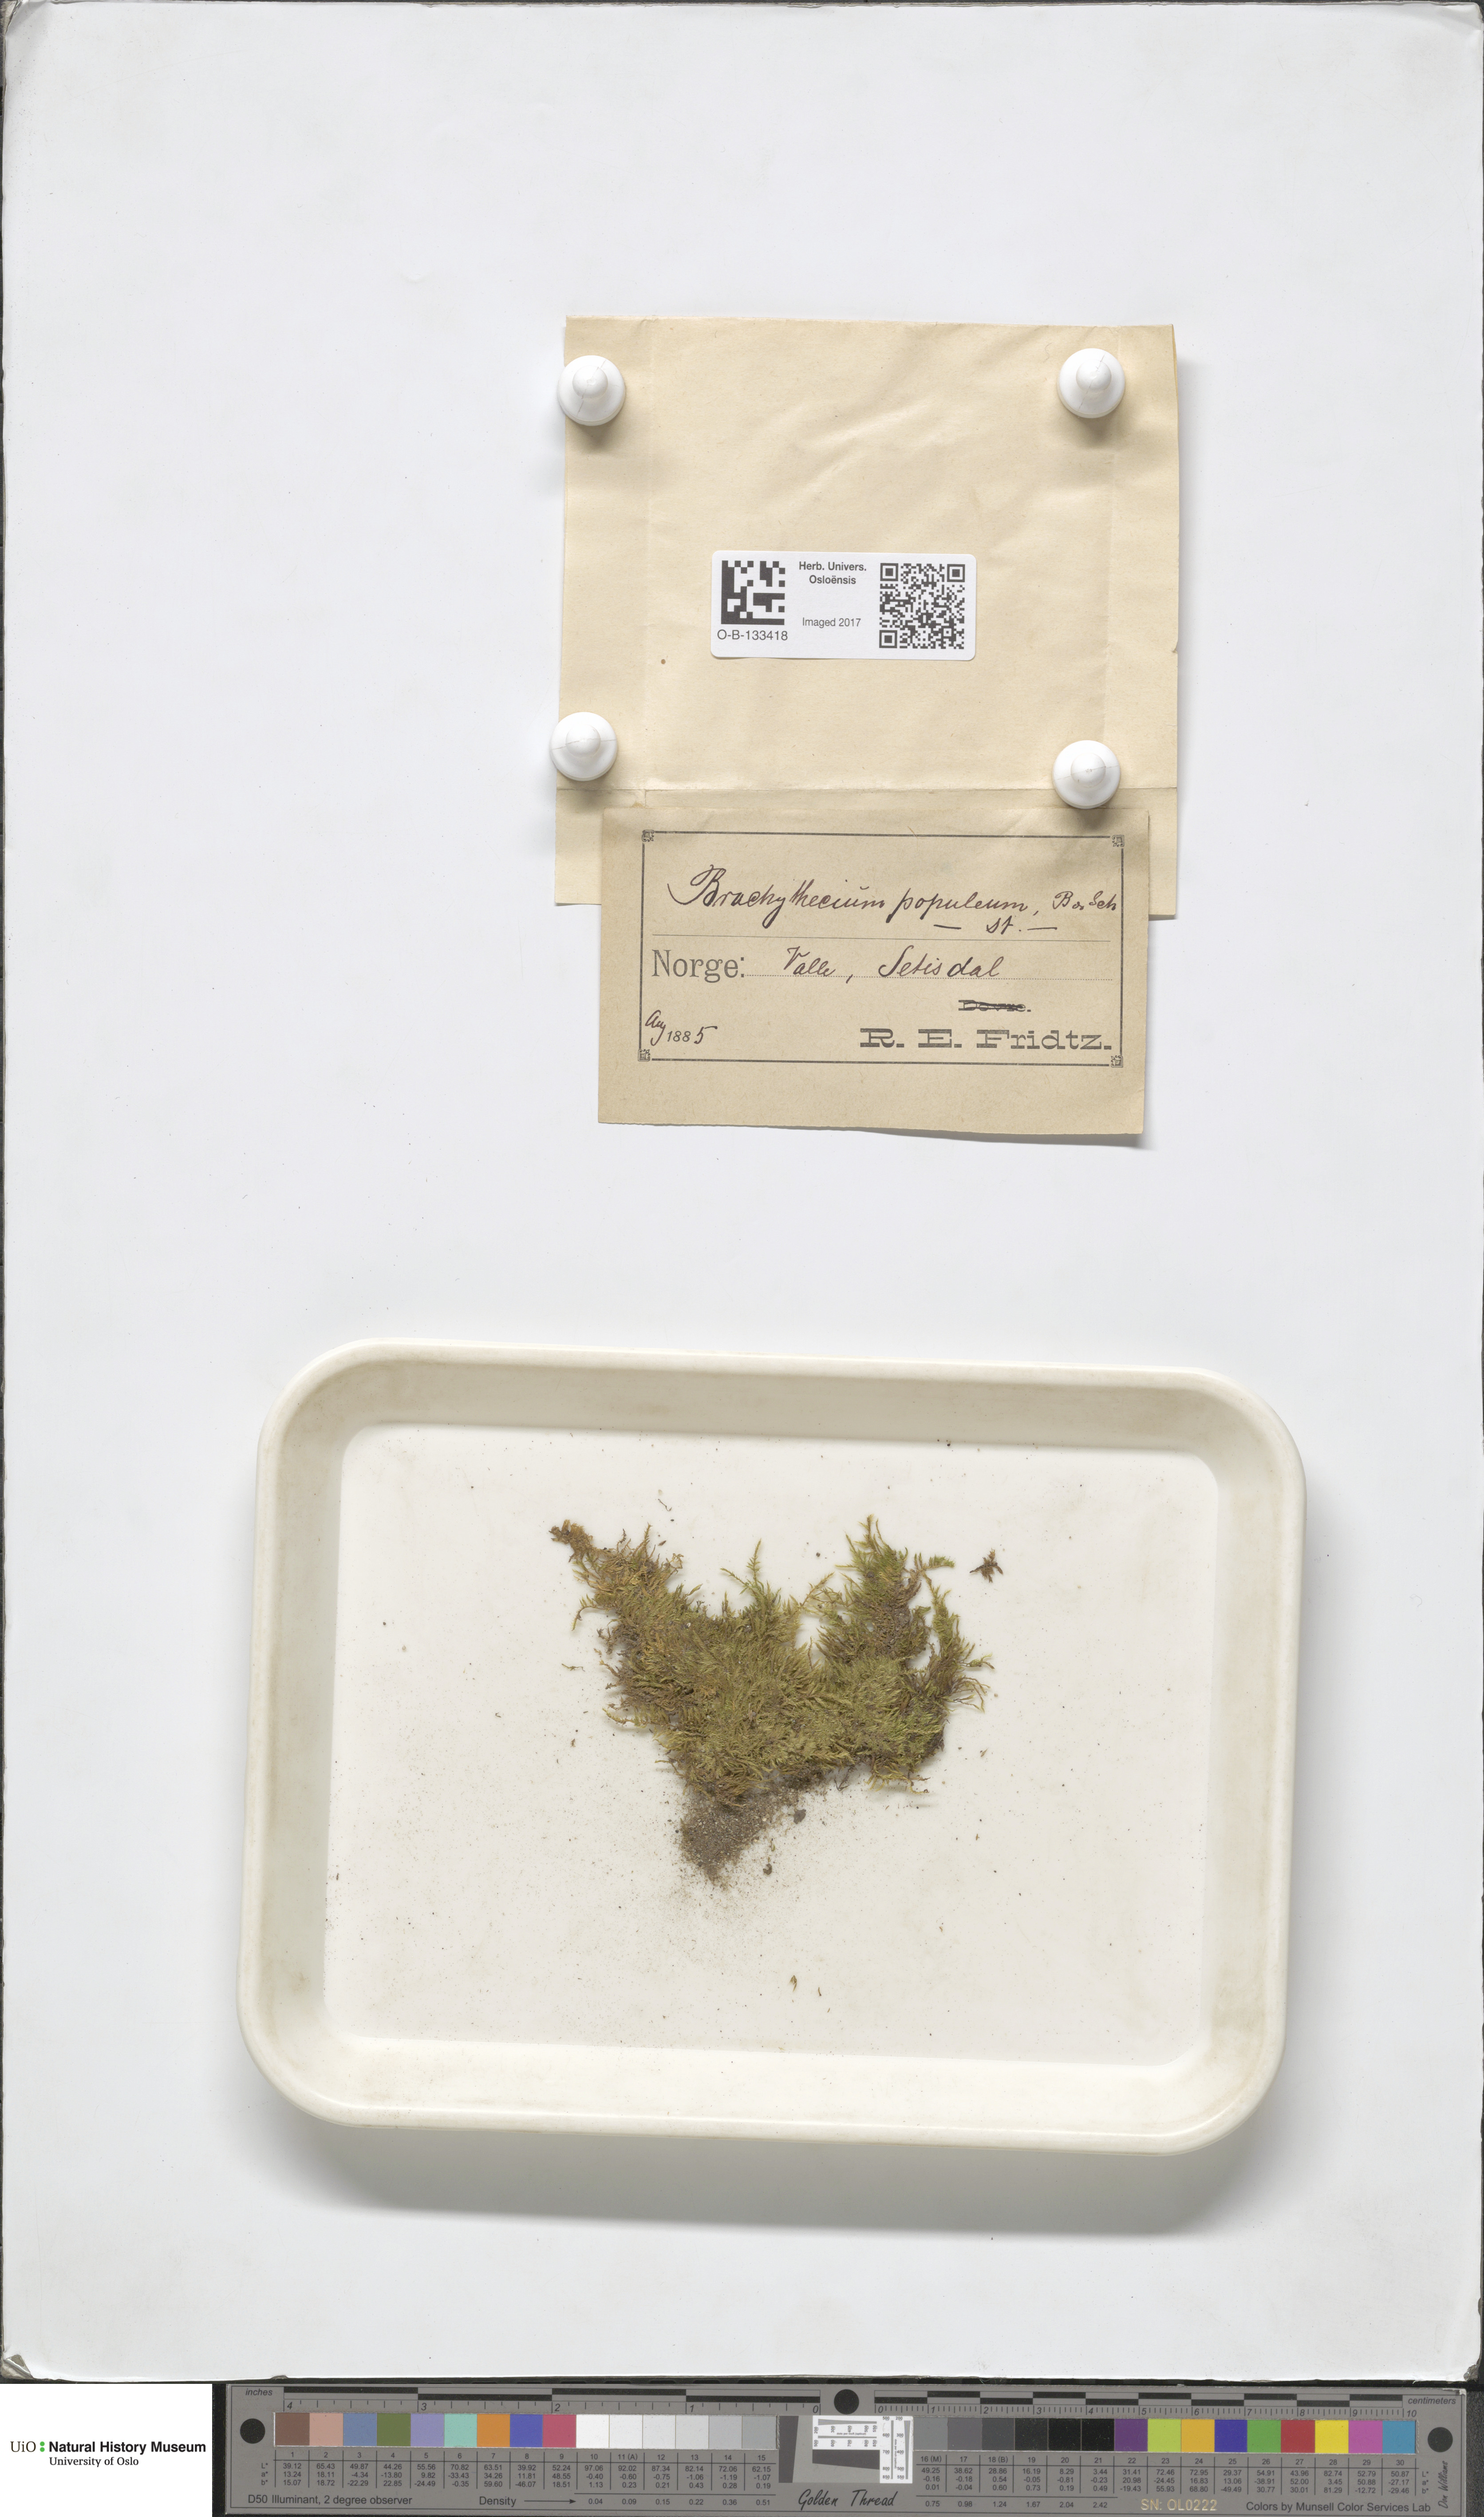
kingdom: Plantae
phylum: Bryophyta
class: Bryopsida
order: Hypnales
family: Brachytheciaceae
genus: Sciuro-hypnum
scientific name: Sciuro-hypnum plumosum
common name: Rusty feather-moss
